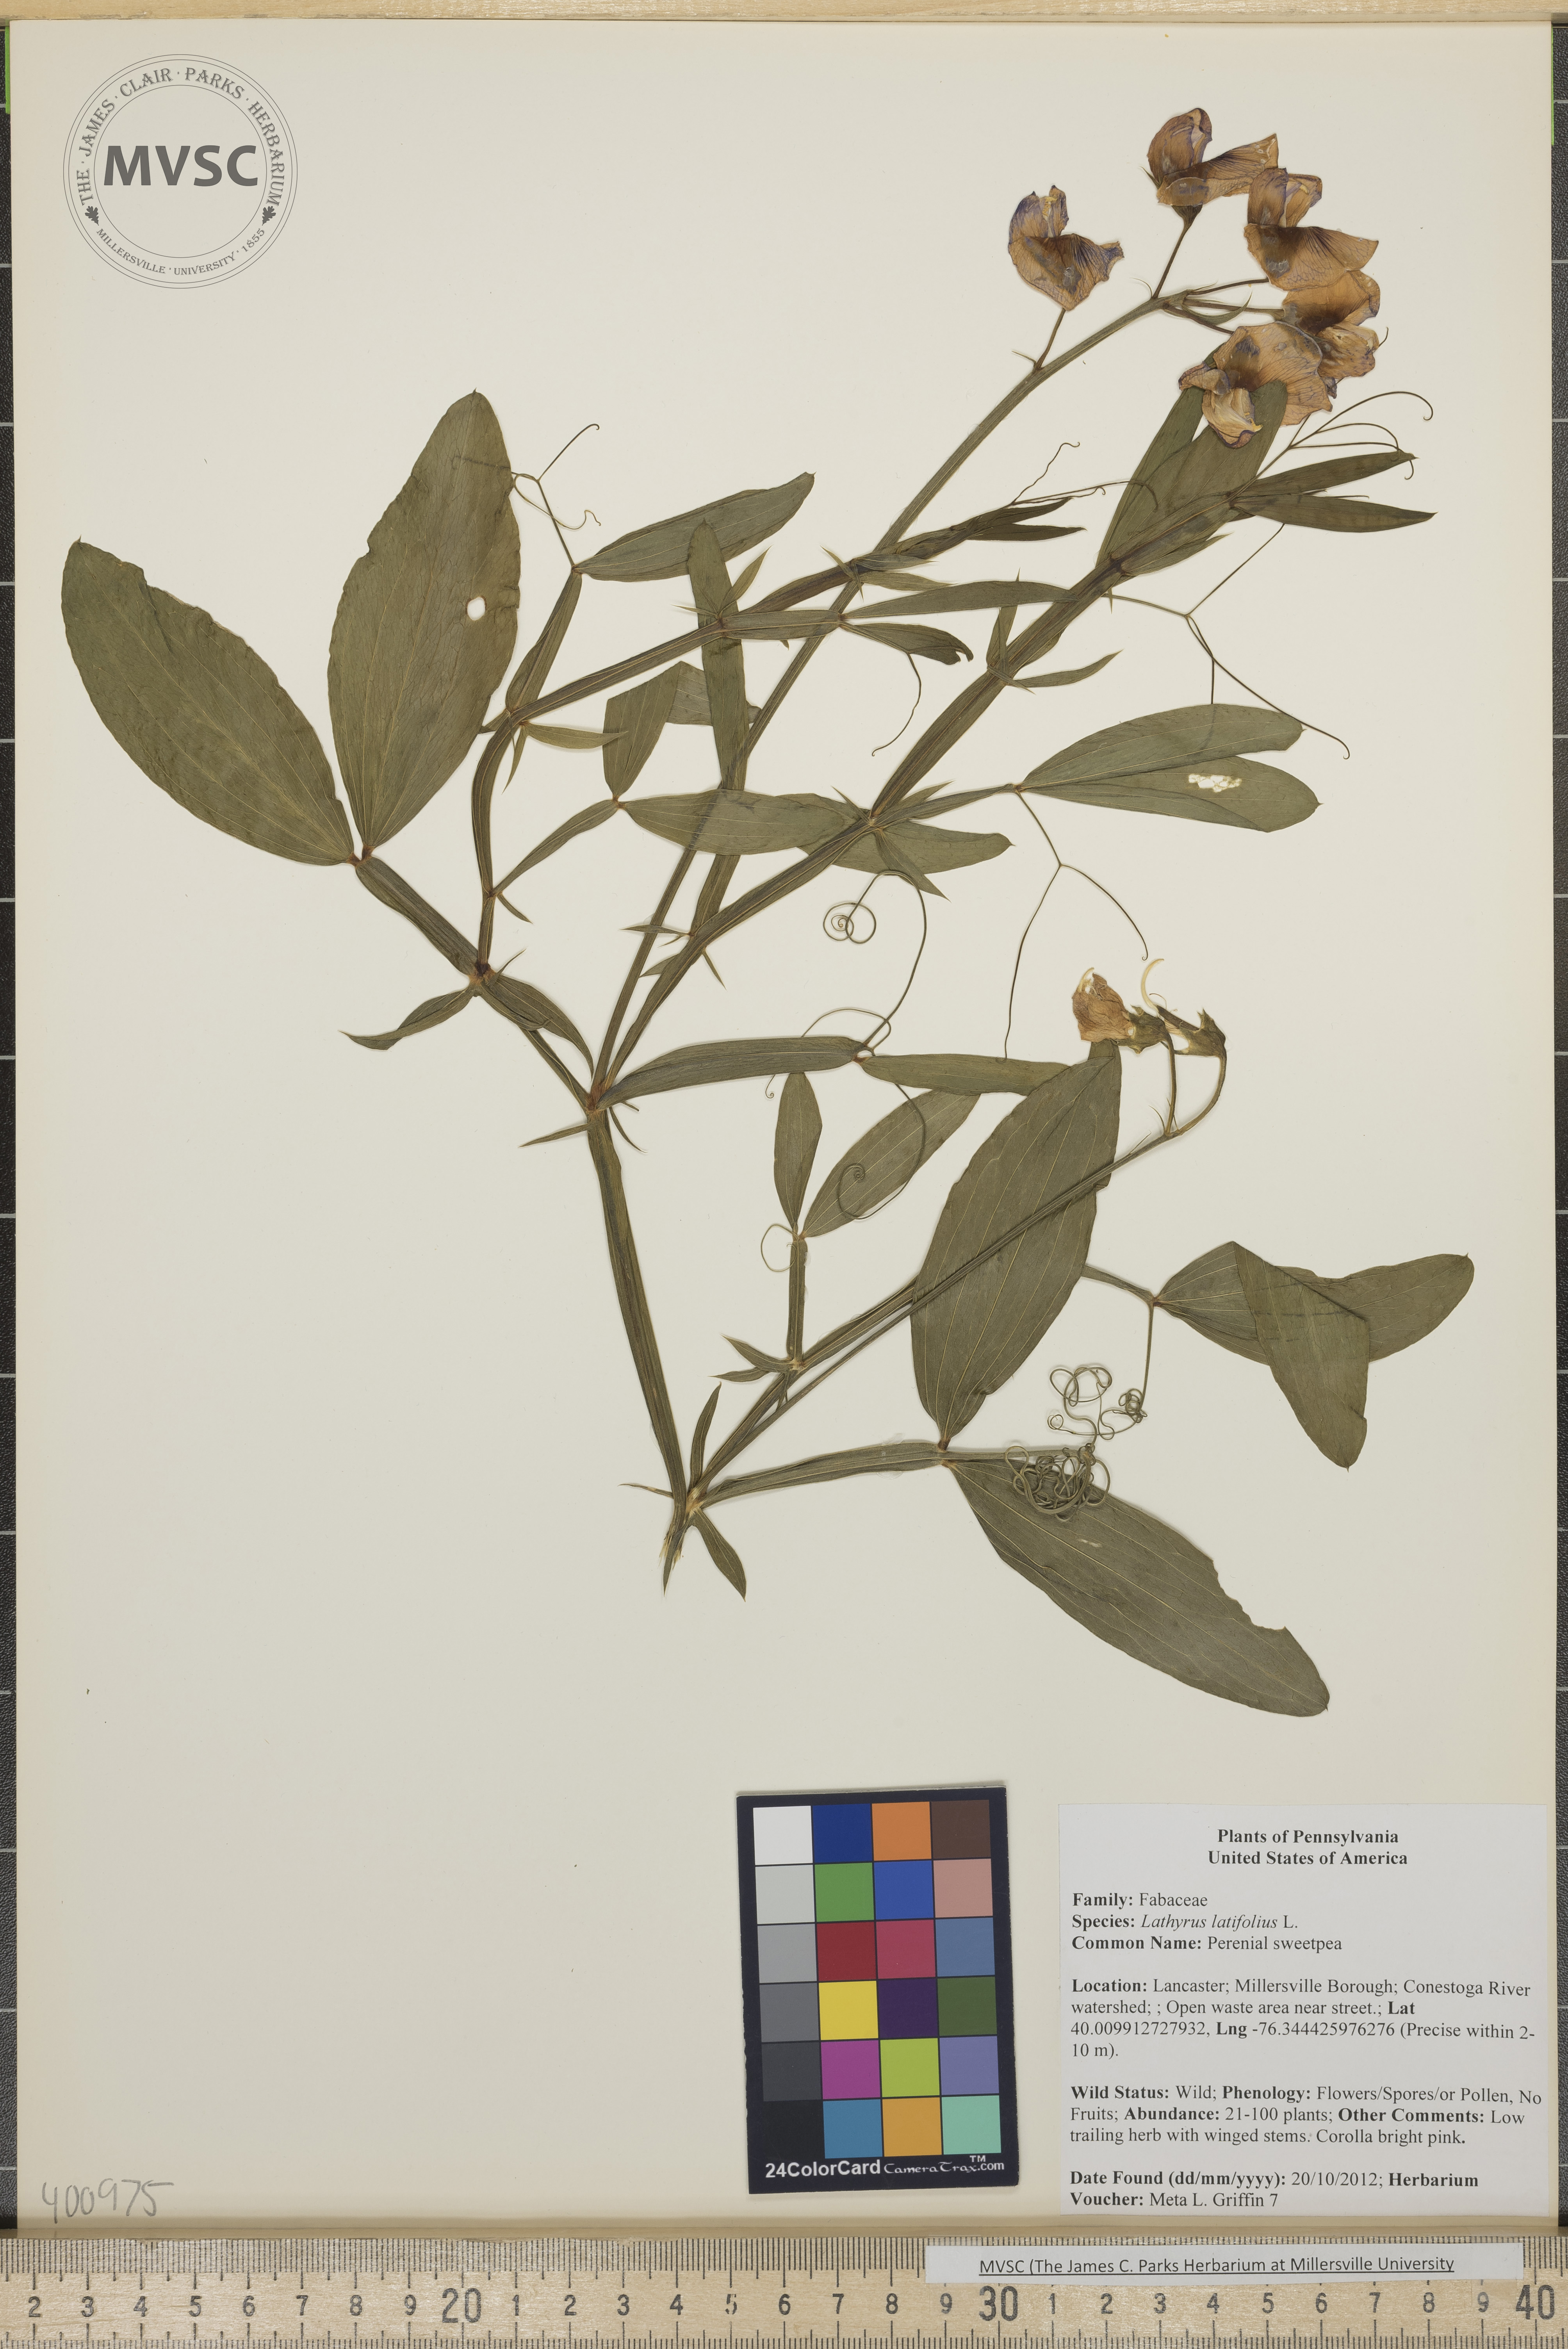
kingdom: Plantae
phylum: Tracheophyta
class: Magnoliopsida
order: Fabales
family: Fabaceae
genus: Lathyrus
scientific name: Lathyrus latifolius
